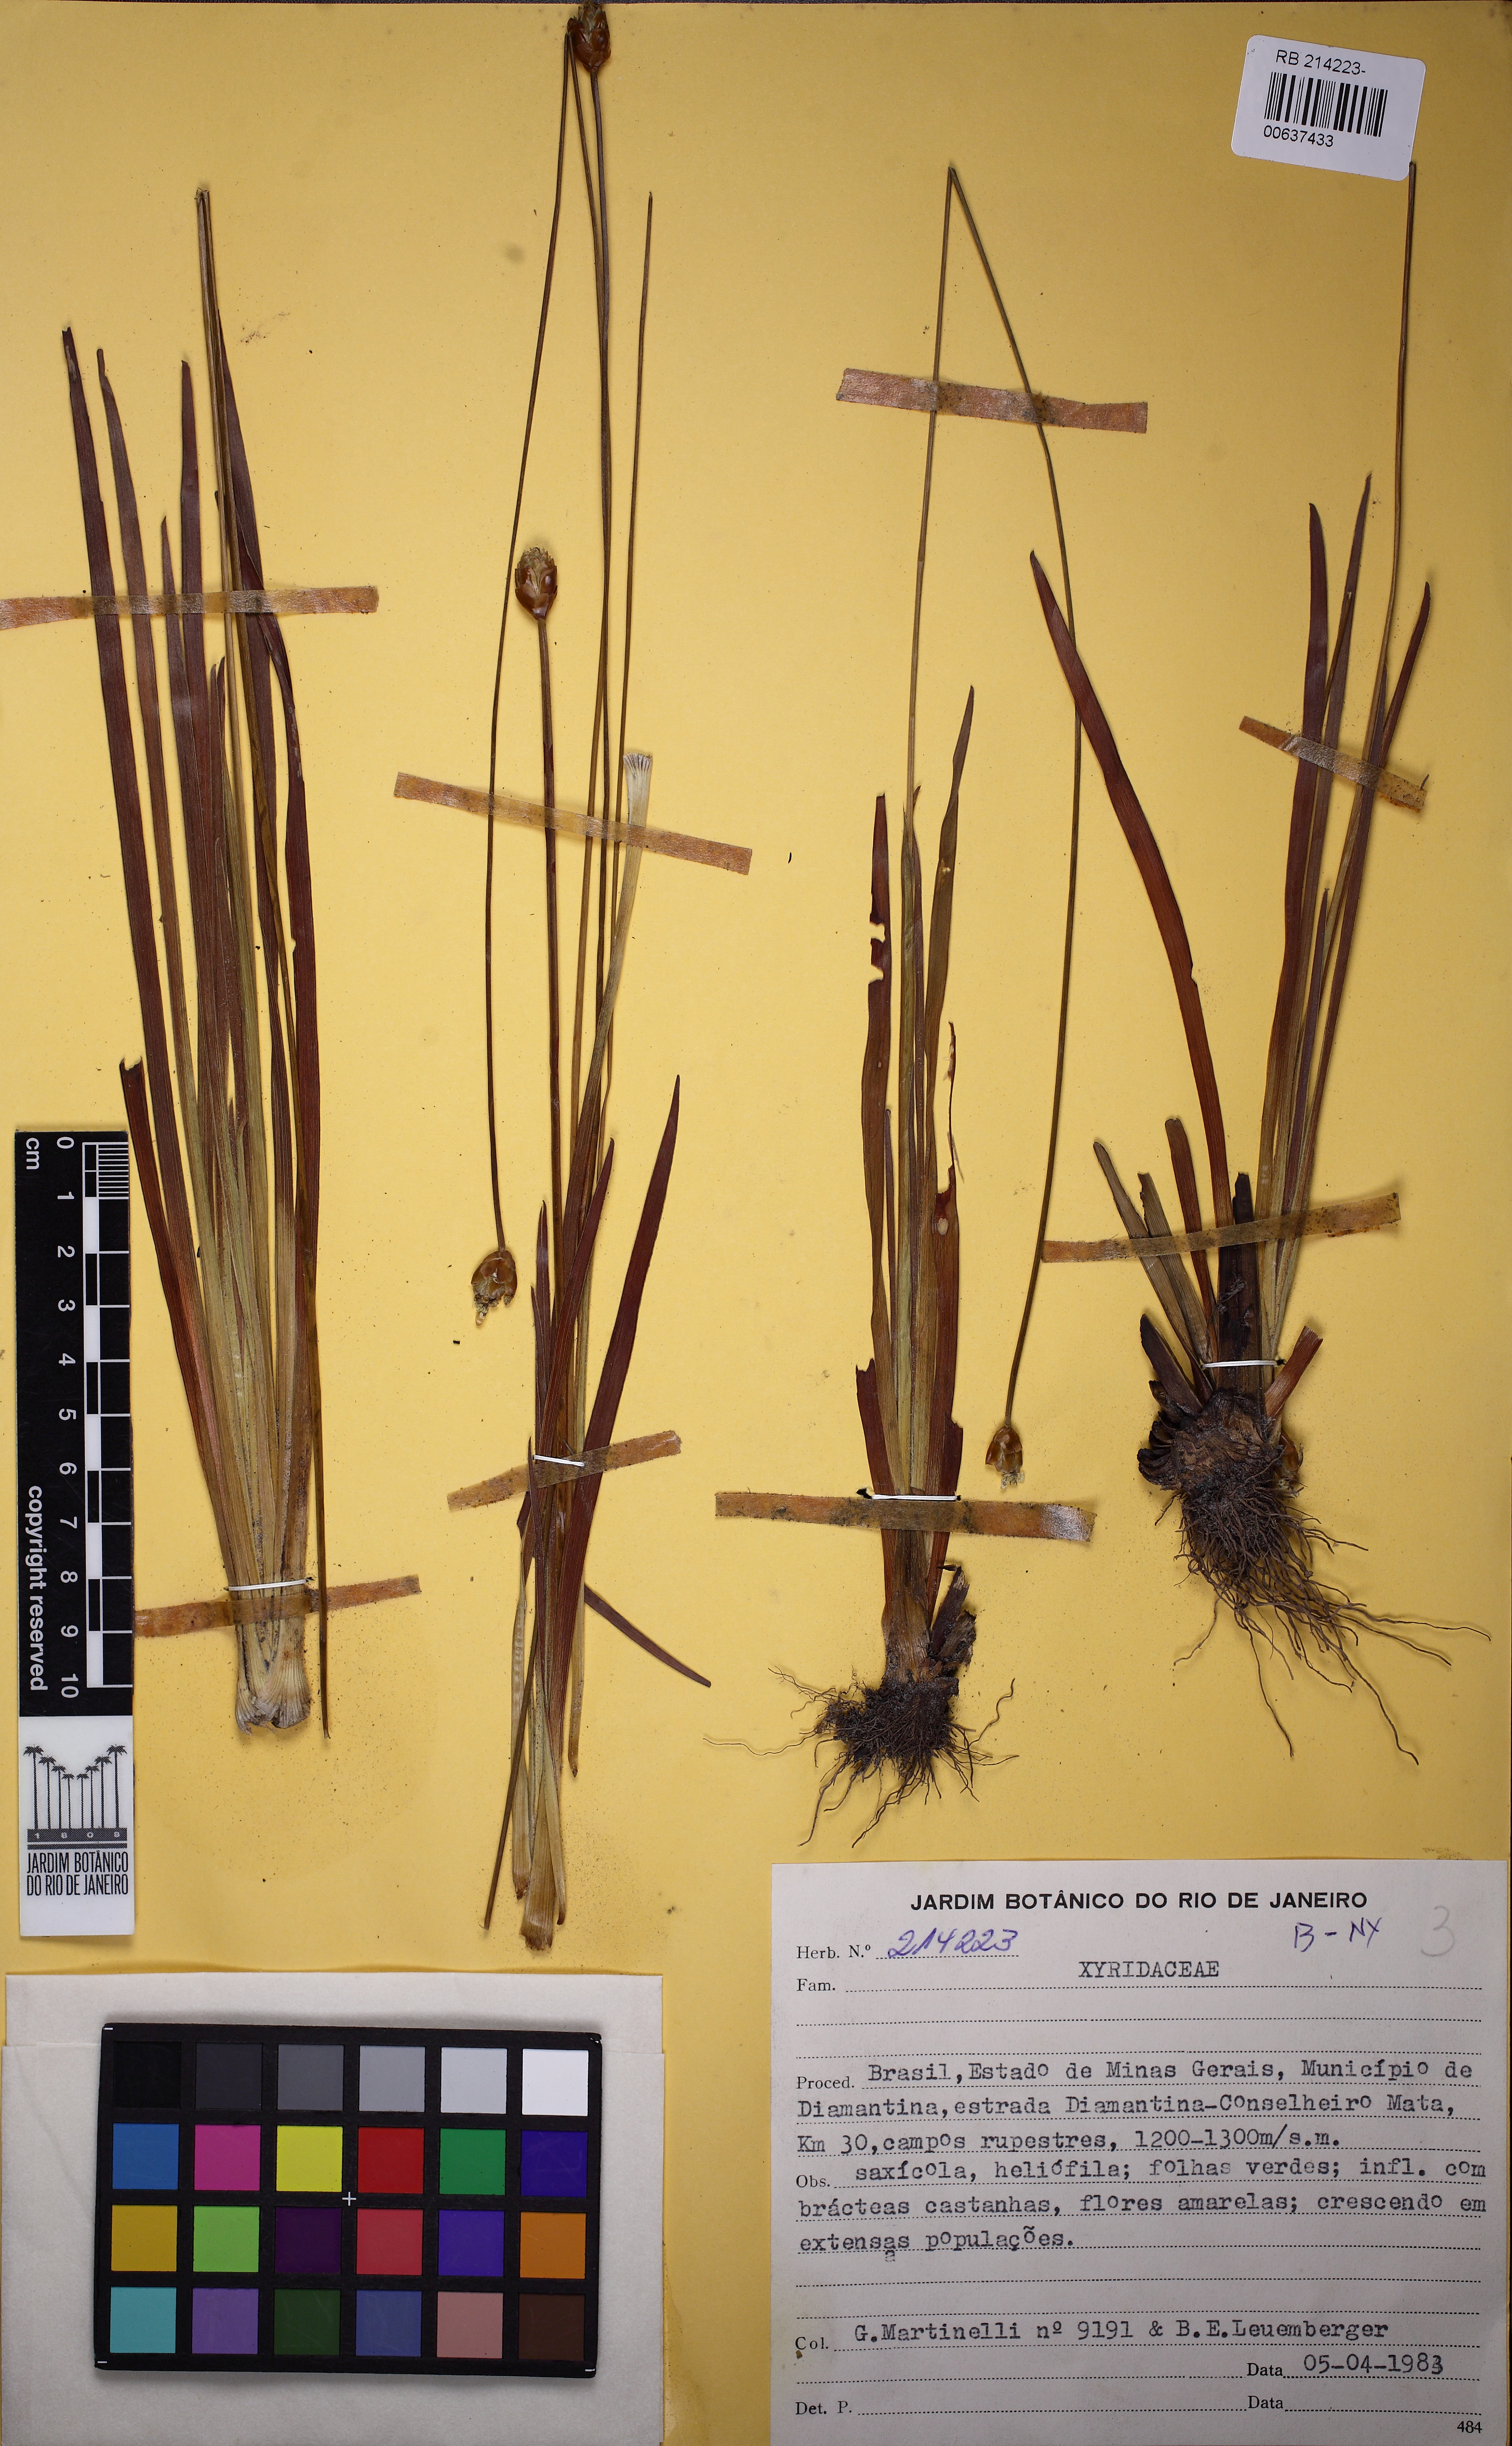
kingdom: Plantae
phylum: Tracheophyta
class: Liliopsida
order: Poales
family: Xyridaceae
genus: Xyris
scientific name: Xyris pterygoblephara
